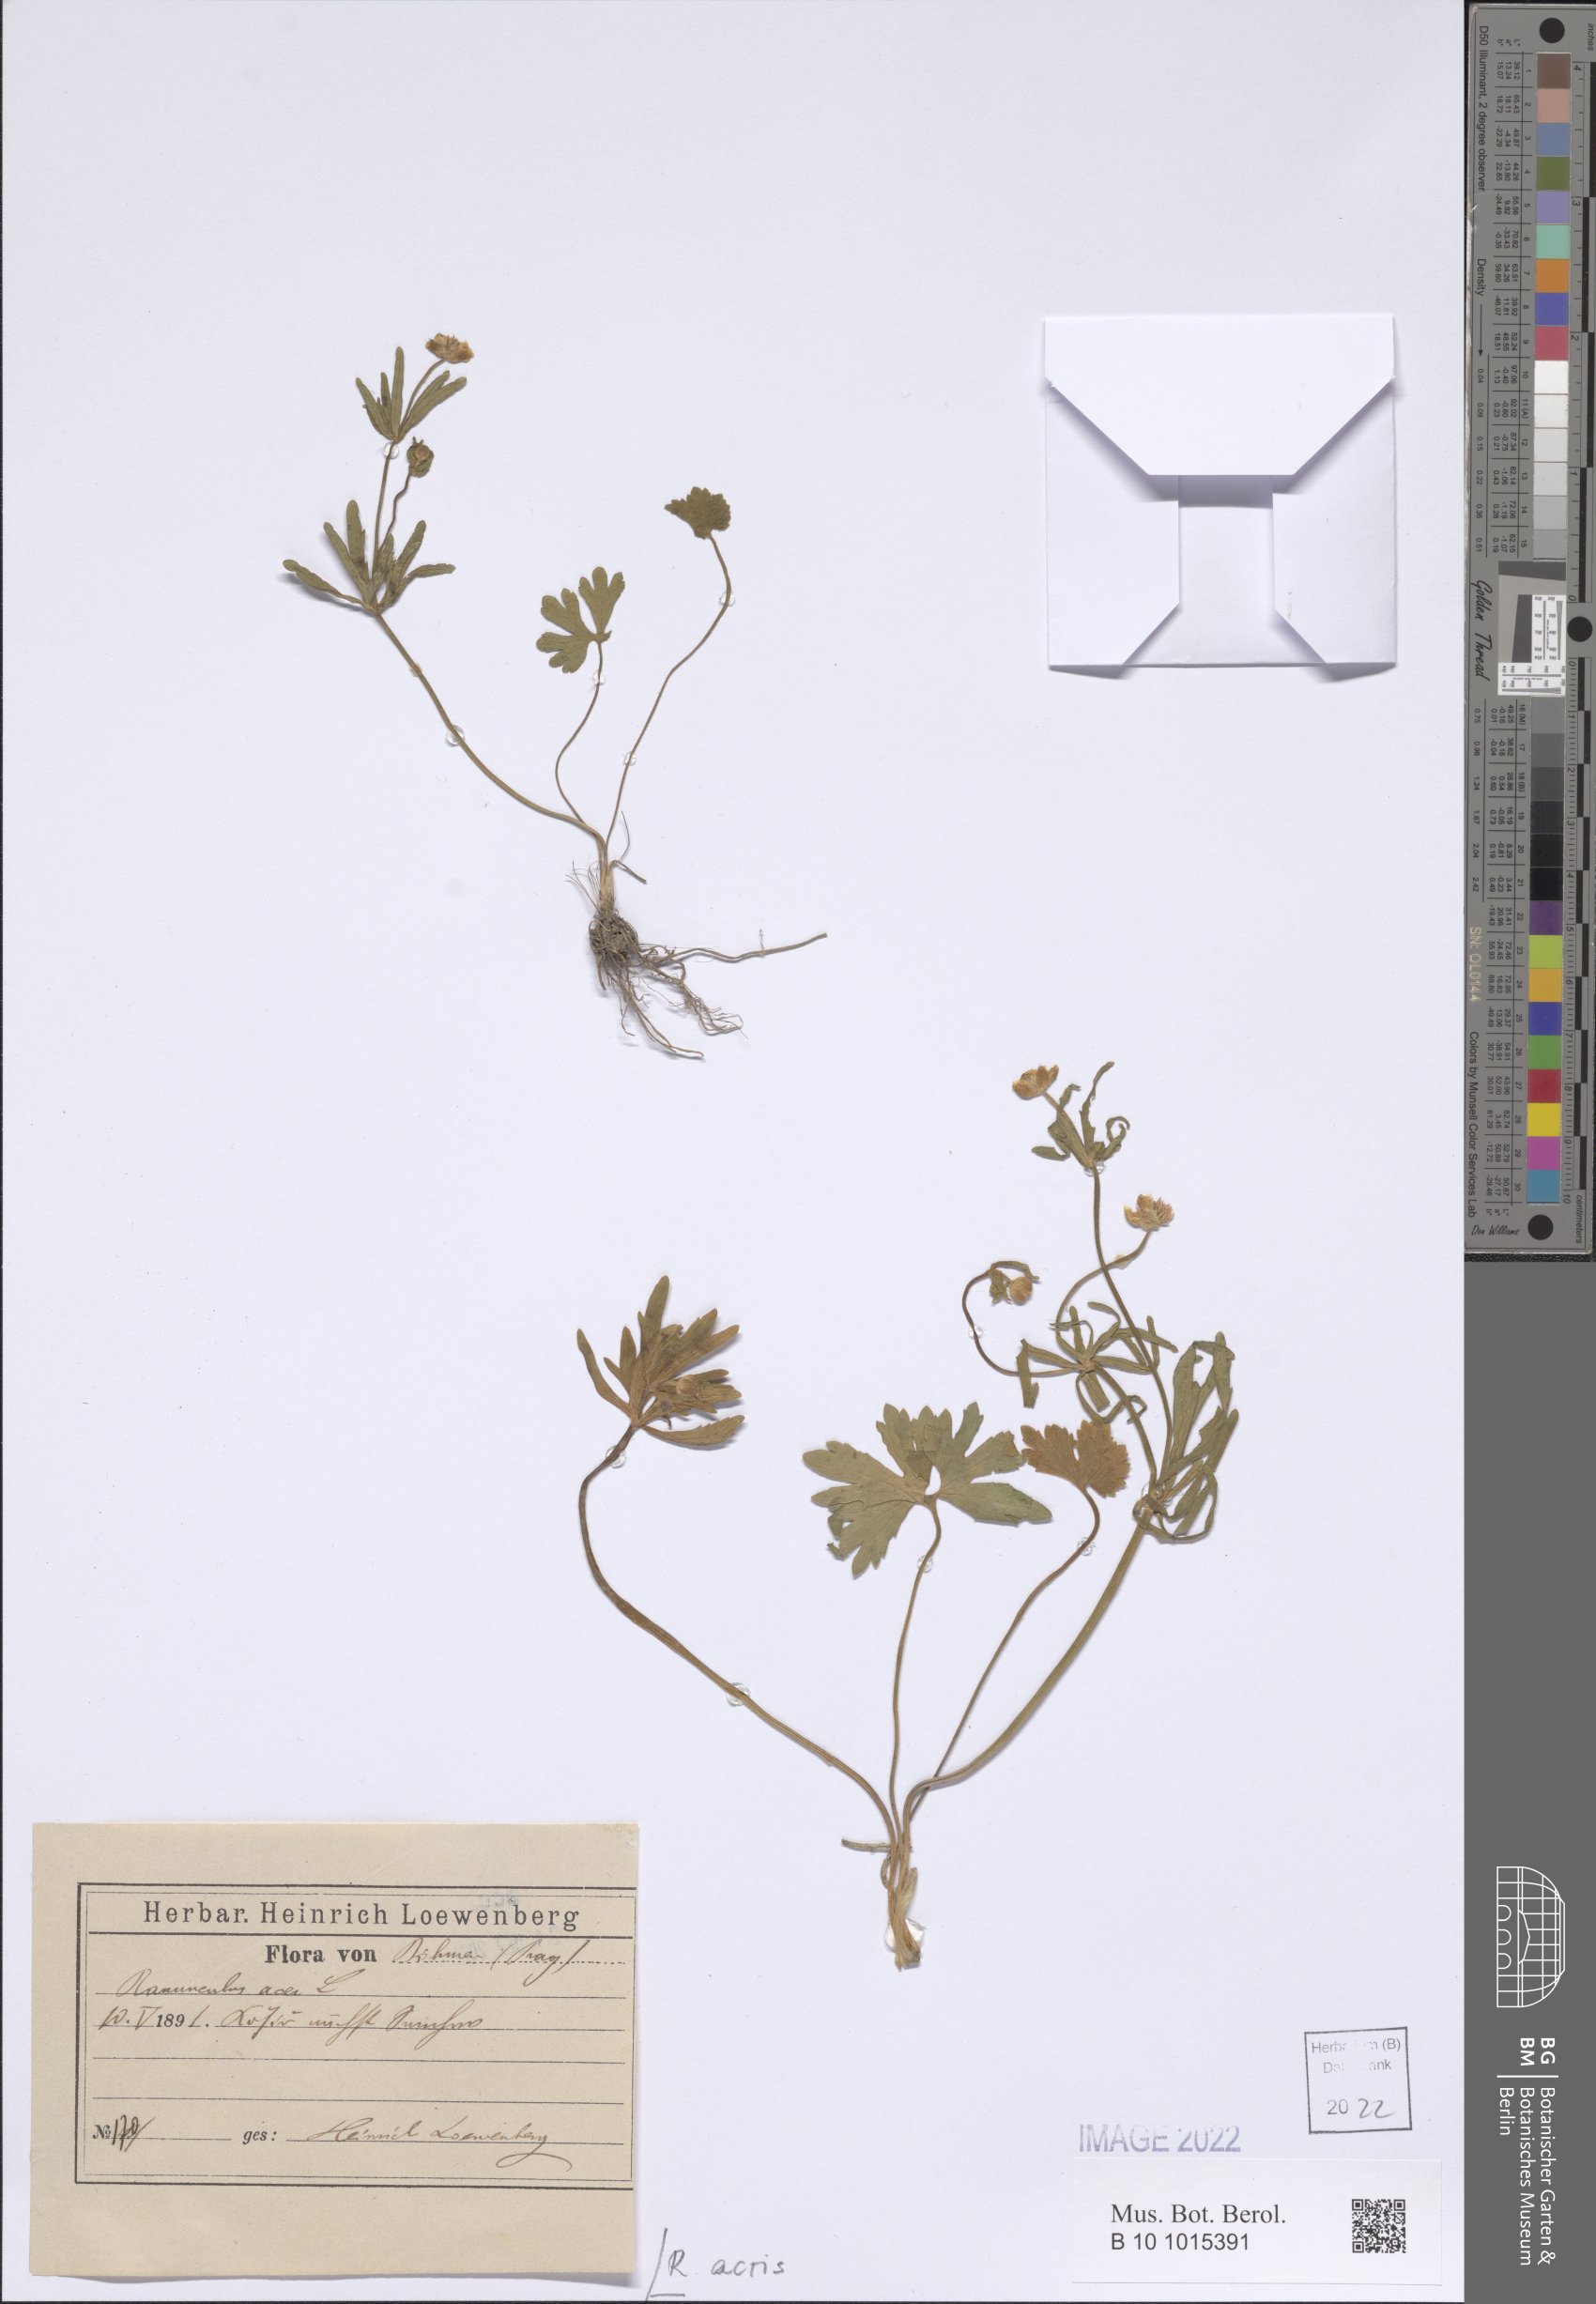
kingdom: Plantae
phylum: Tracheophyta
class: Magnoliopsida
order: Ranunculales
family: Ranunculaceae
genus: Ranunculus
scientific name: Ranunculus acris
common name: Meadow buttercup
